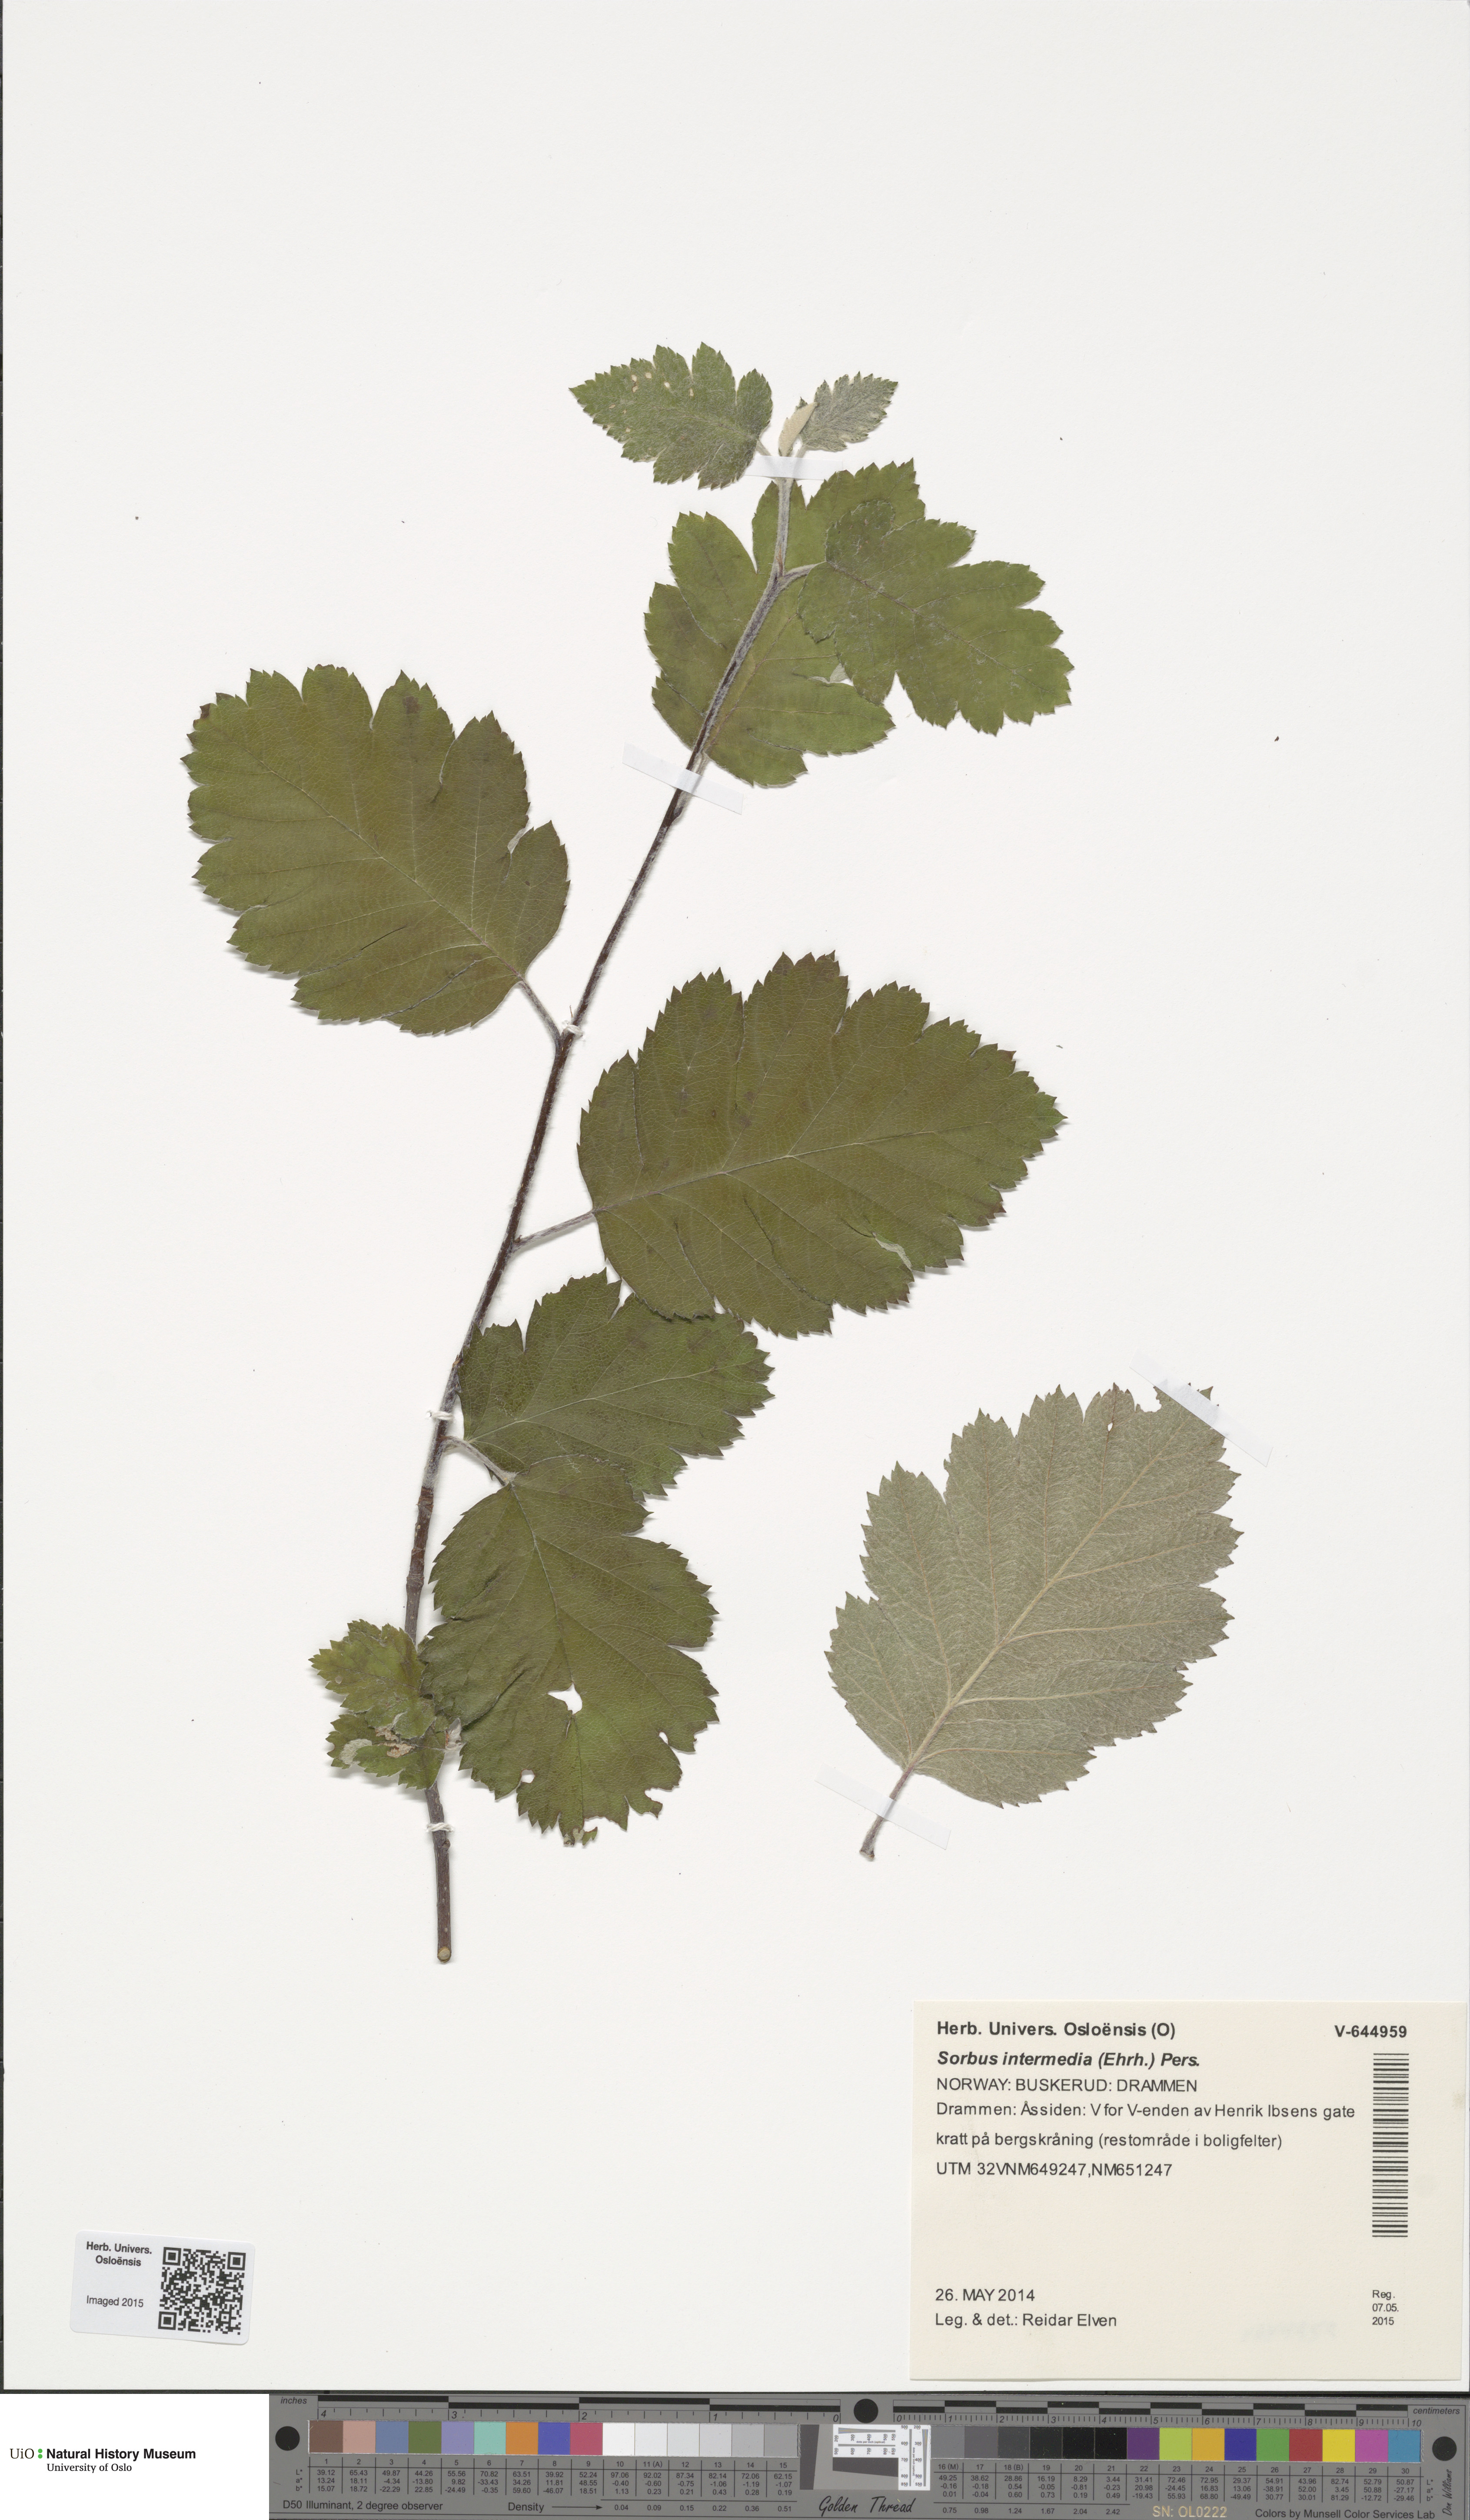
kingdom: Plantae
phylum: Tracheophyta
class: Magnoliopsida
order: Rosales
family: Rosaceae
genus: Scandosorbus
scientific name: Scandosorbus intermedia
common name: Swedish whitebeam
